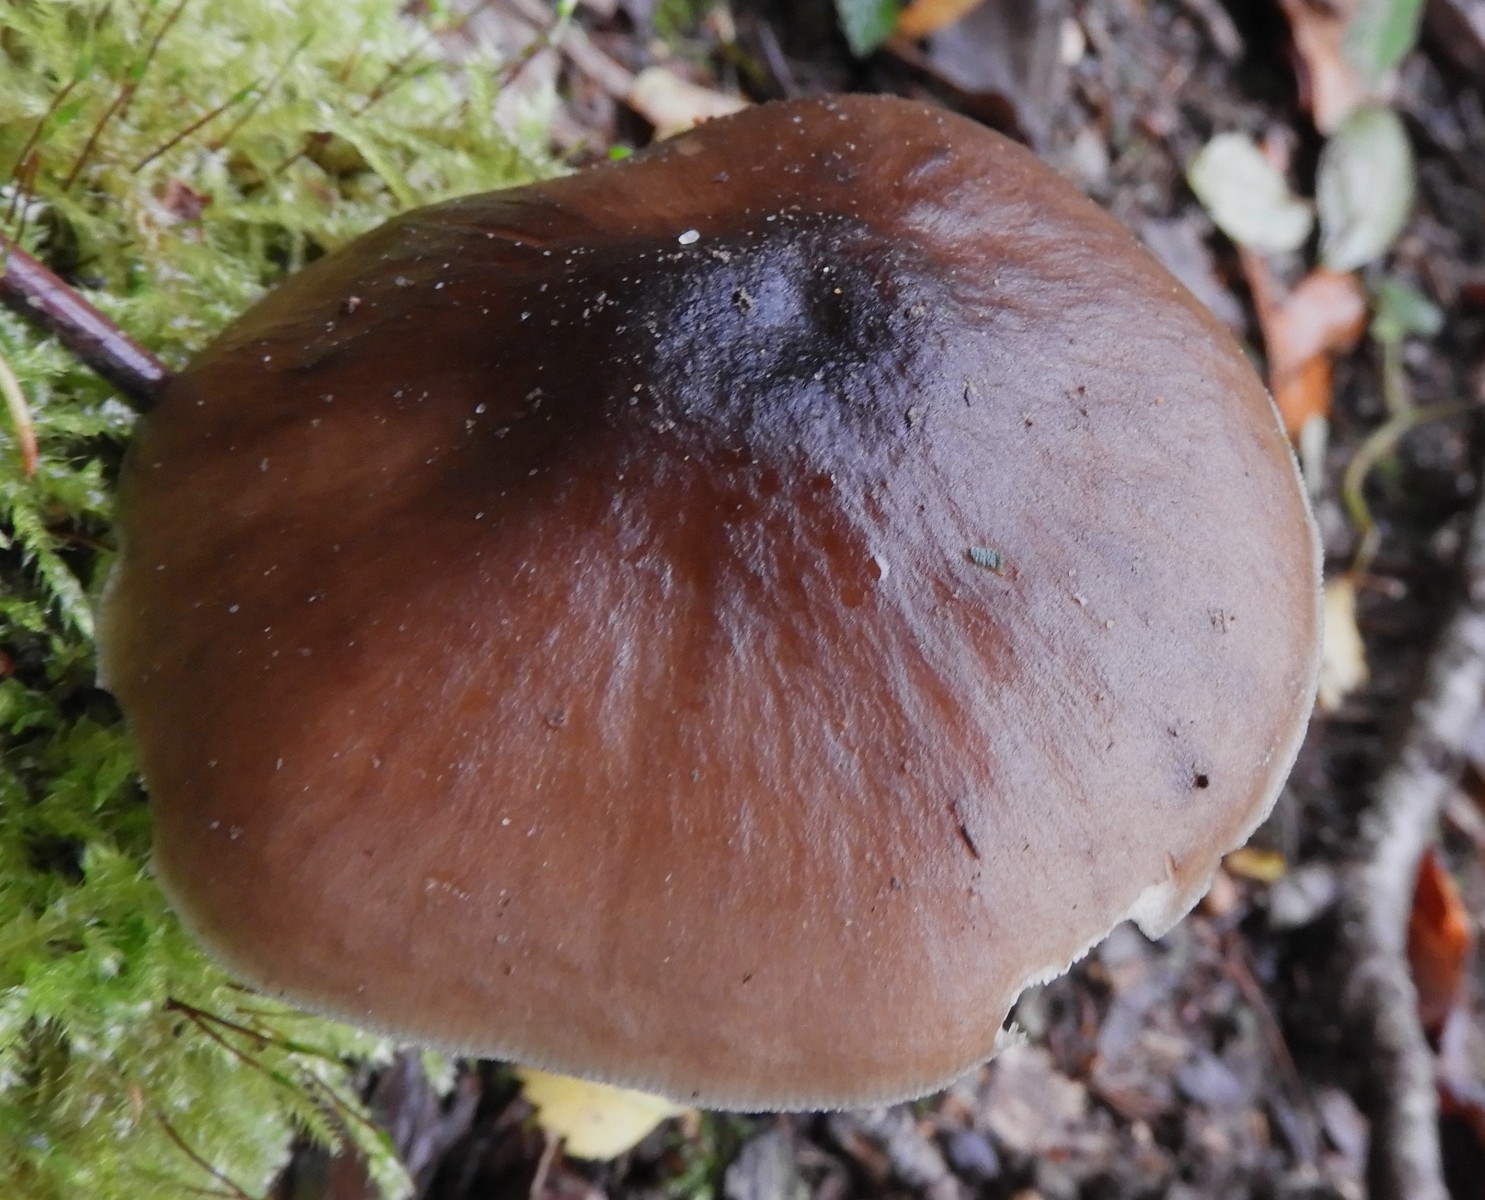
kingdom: Fungi
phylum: Basidiomycota
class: Agaricomycetes
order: Agaricales
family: Pluteaceae
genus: Pluteus
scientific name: Pluteus cervinus
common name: sodfarvet skærmhat
